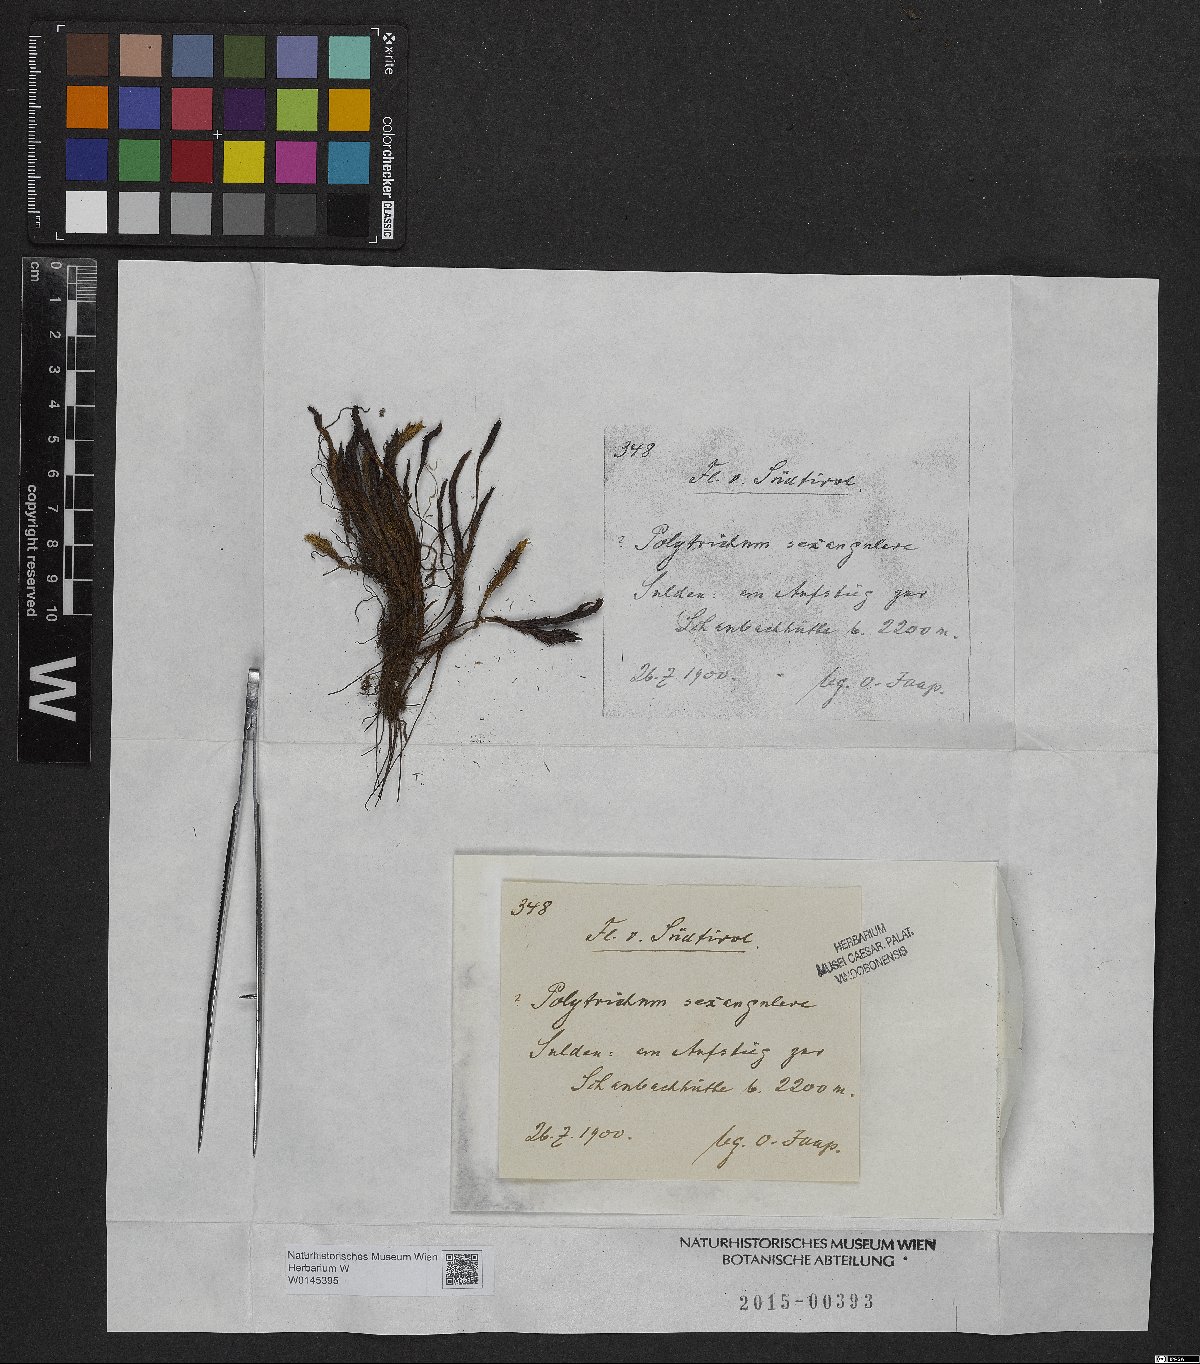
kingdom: Plantae
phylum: Bryophyta
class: Polytrichopsida
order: Polytrichales
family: Polytrichaceae
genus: Polytrichastrum
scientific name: Polytrichastrum sexangulare
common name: Northern haircap
